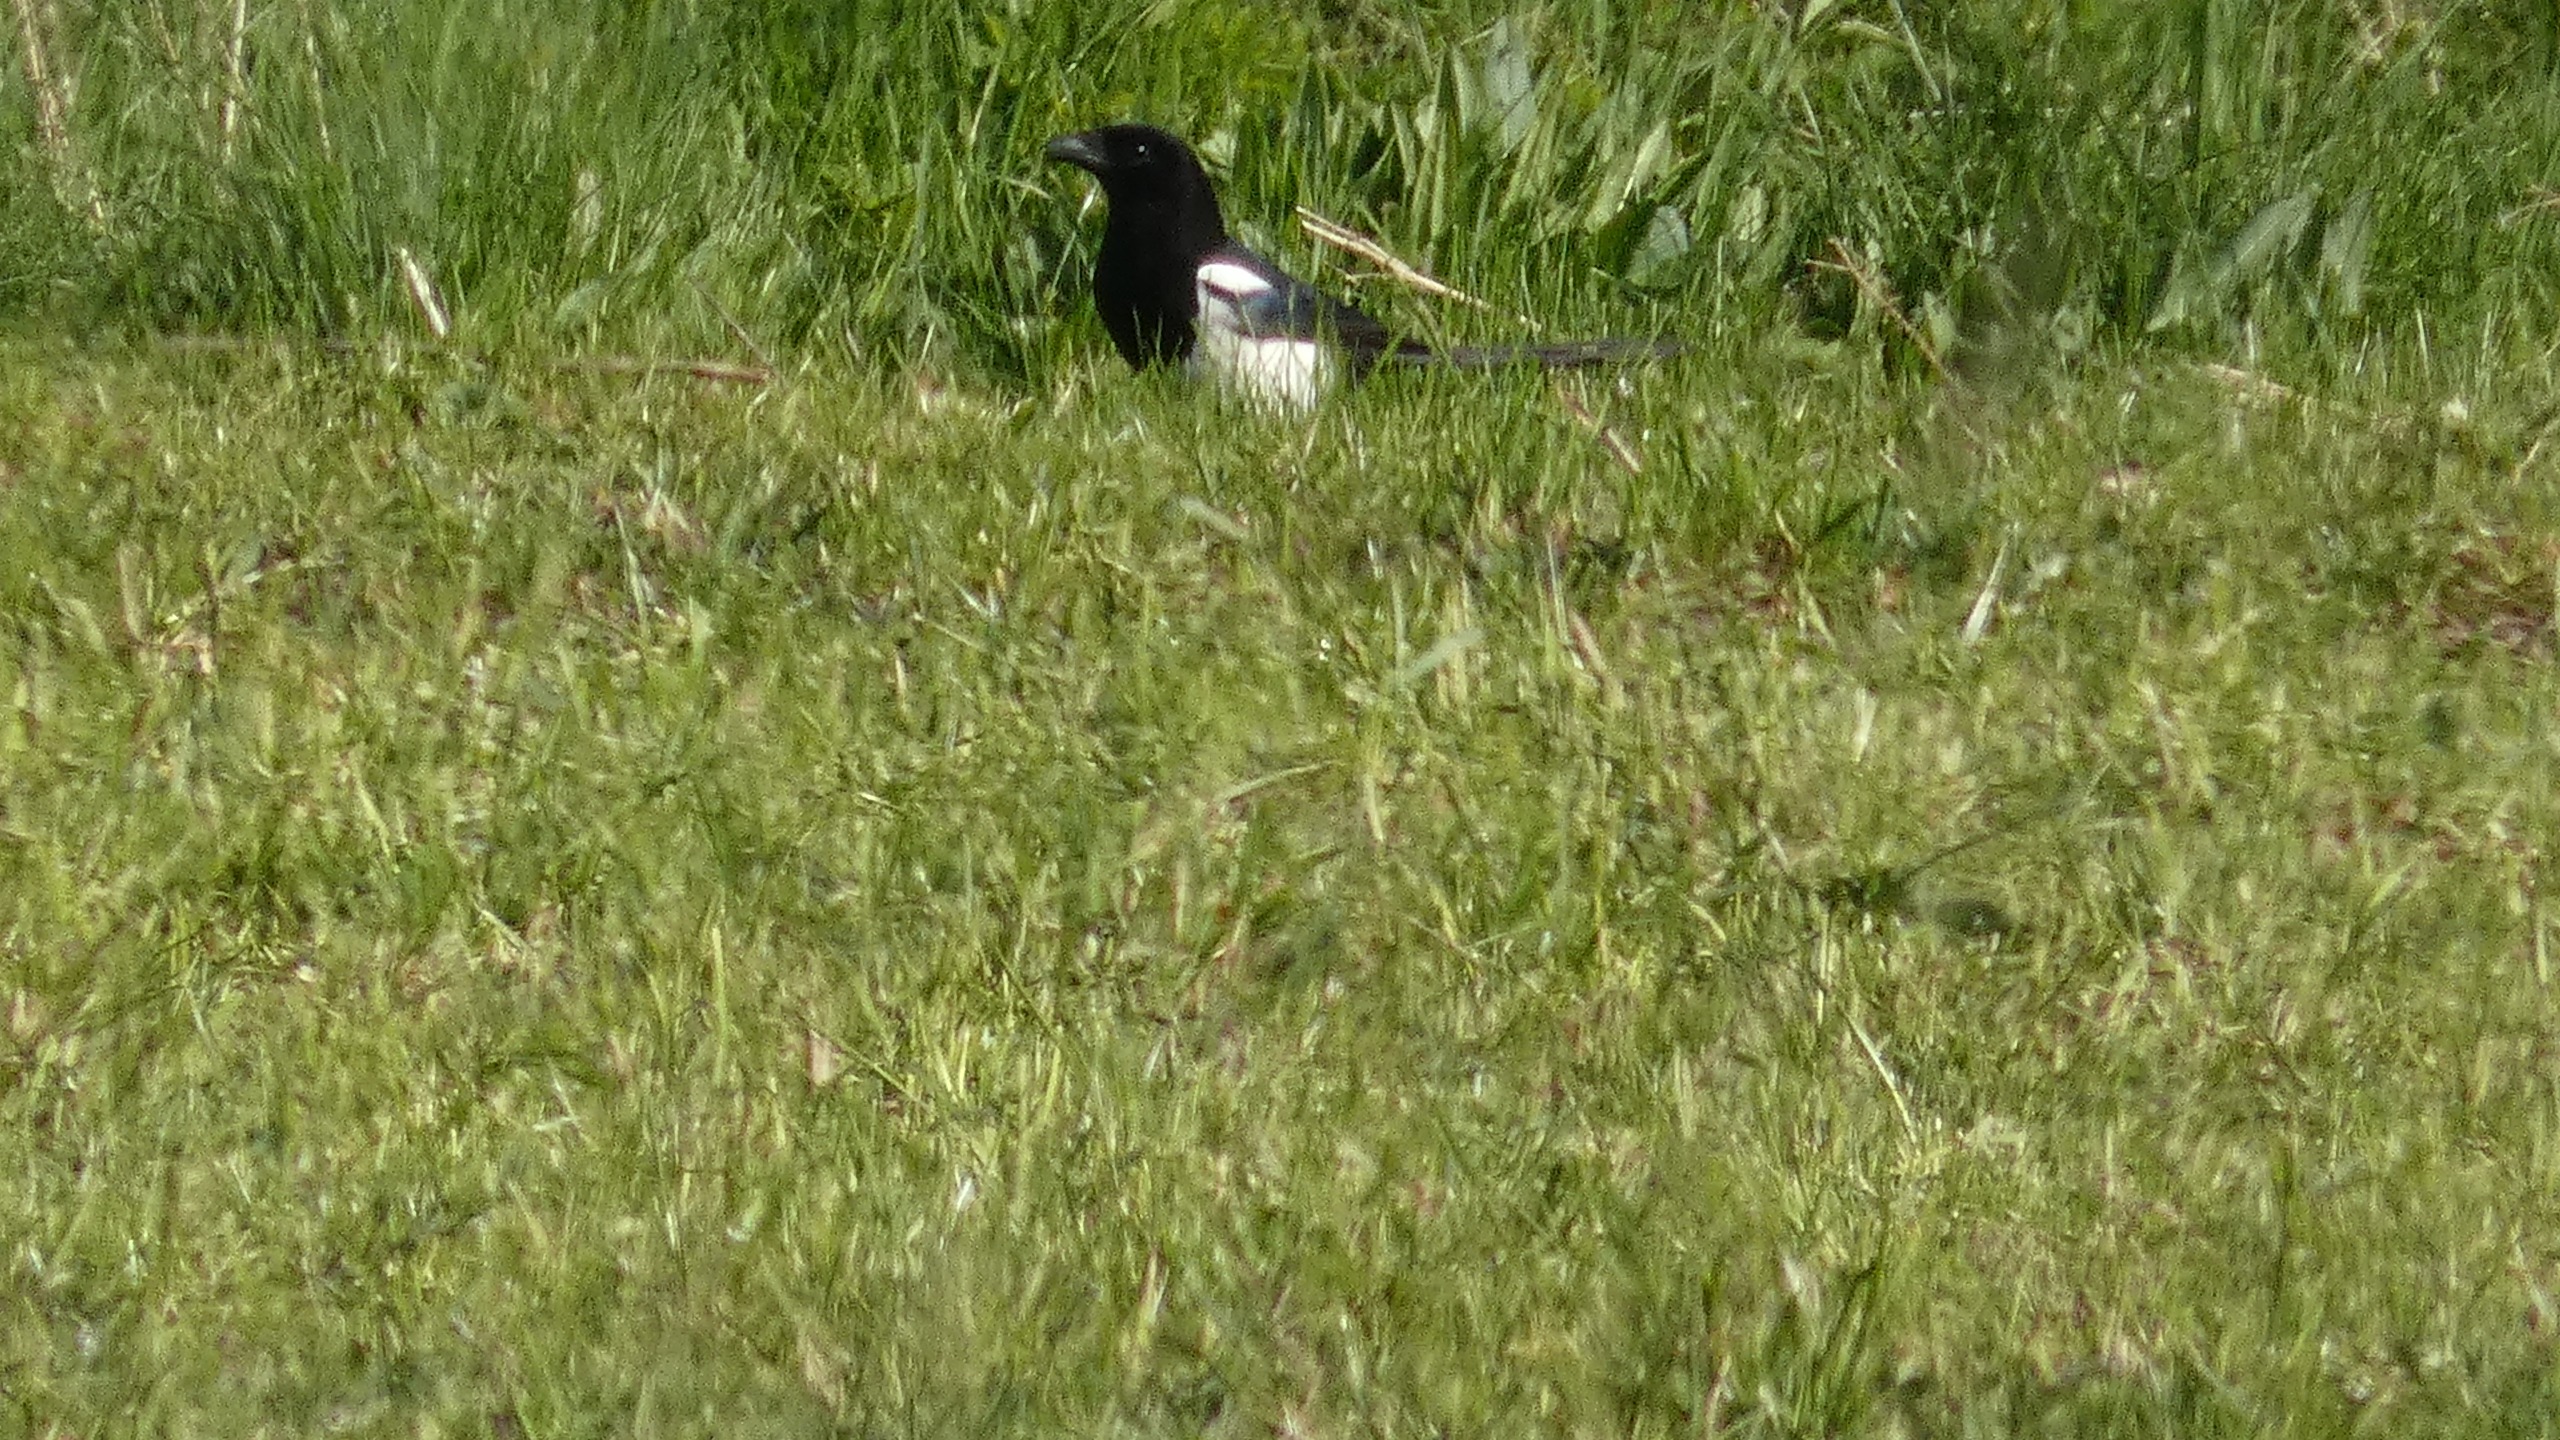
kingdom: Animalia
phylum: Chordata
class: Aves
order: Passeriformes
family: Corvidae
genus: Pica
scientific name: Pica pica
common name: Husskade
